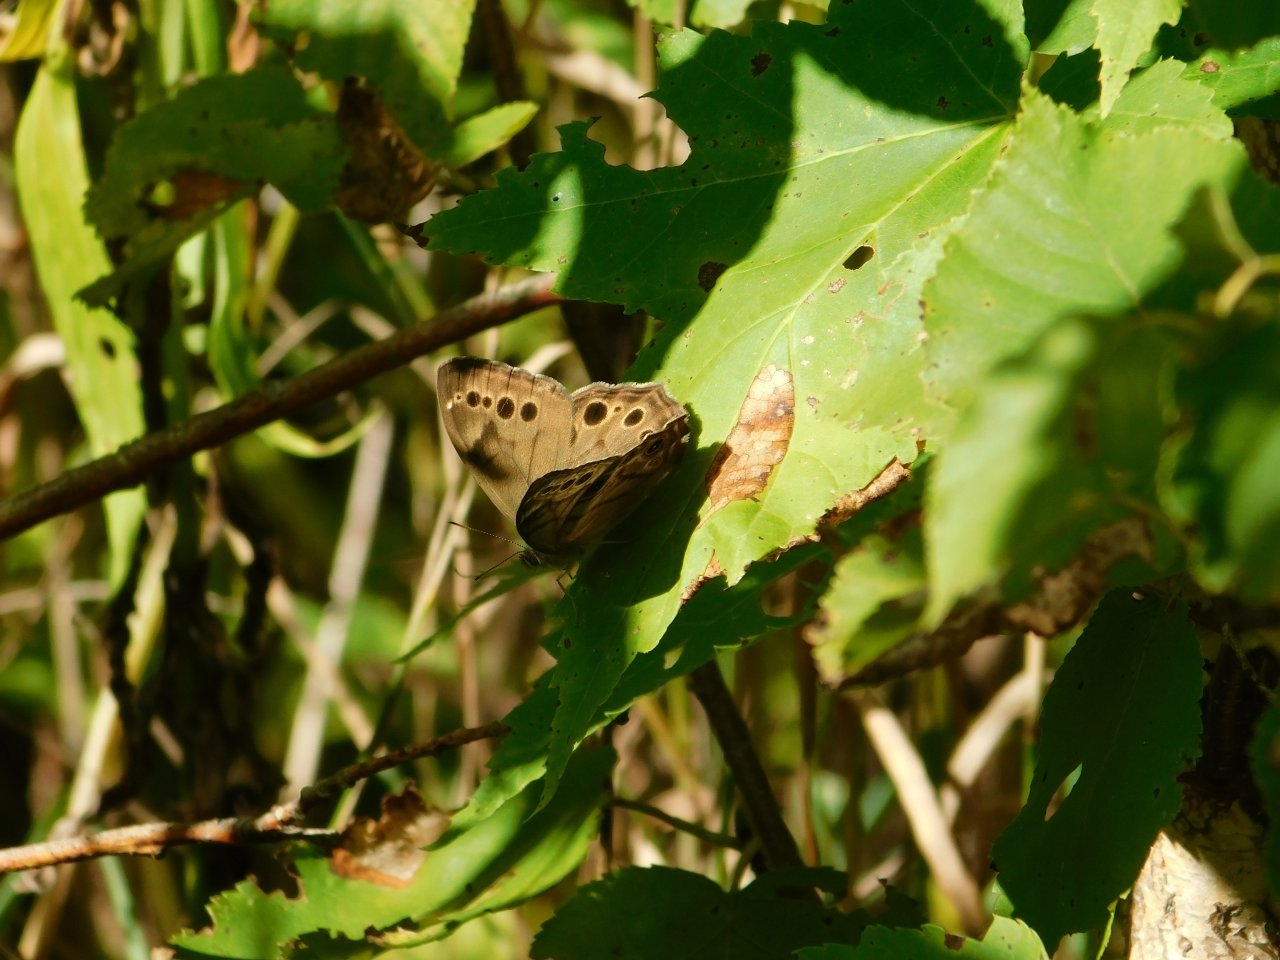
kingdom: Animalia
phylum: Arthropoda
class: Insecta
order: Lepidoptera
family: Nymphalidae
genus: Lethe
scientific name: Lethe anthedon
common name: Northern Pearly-Eye
